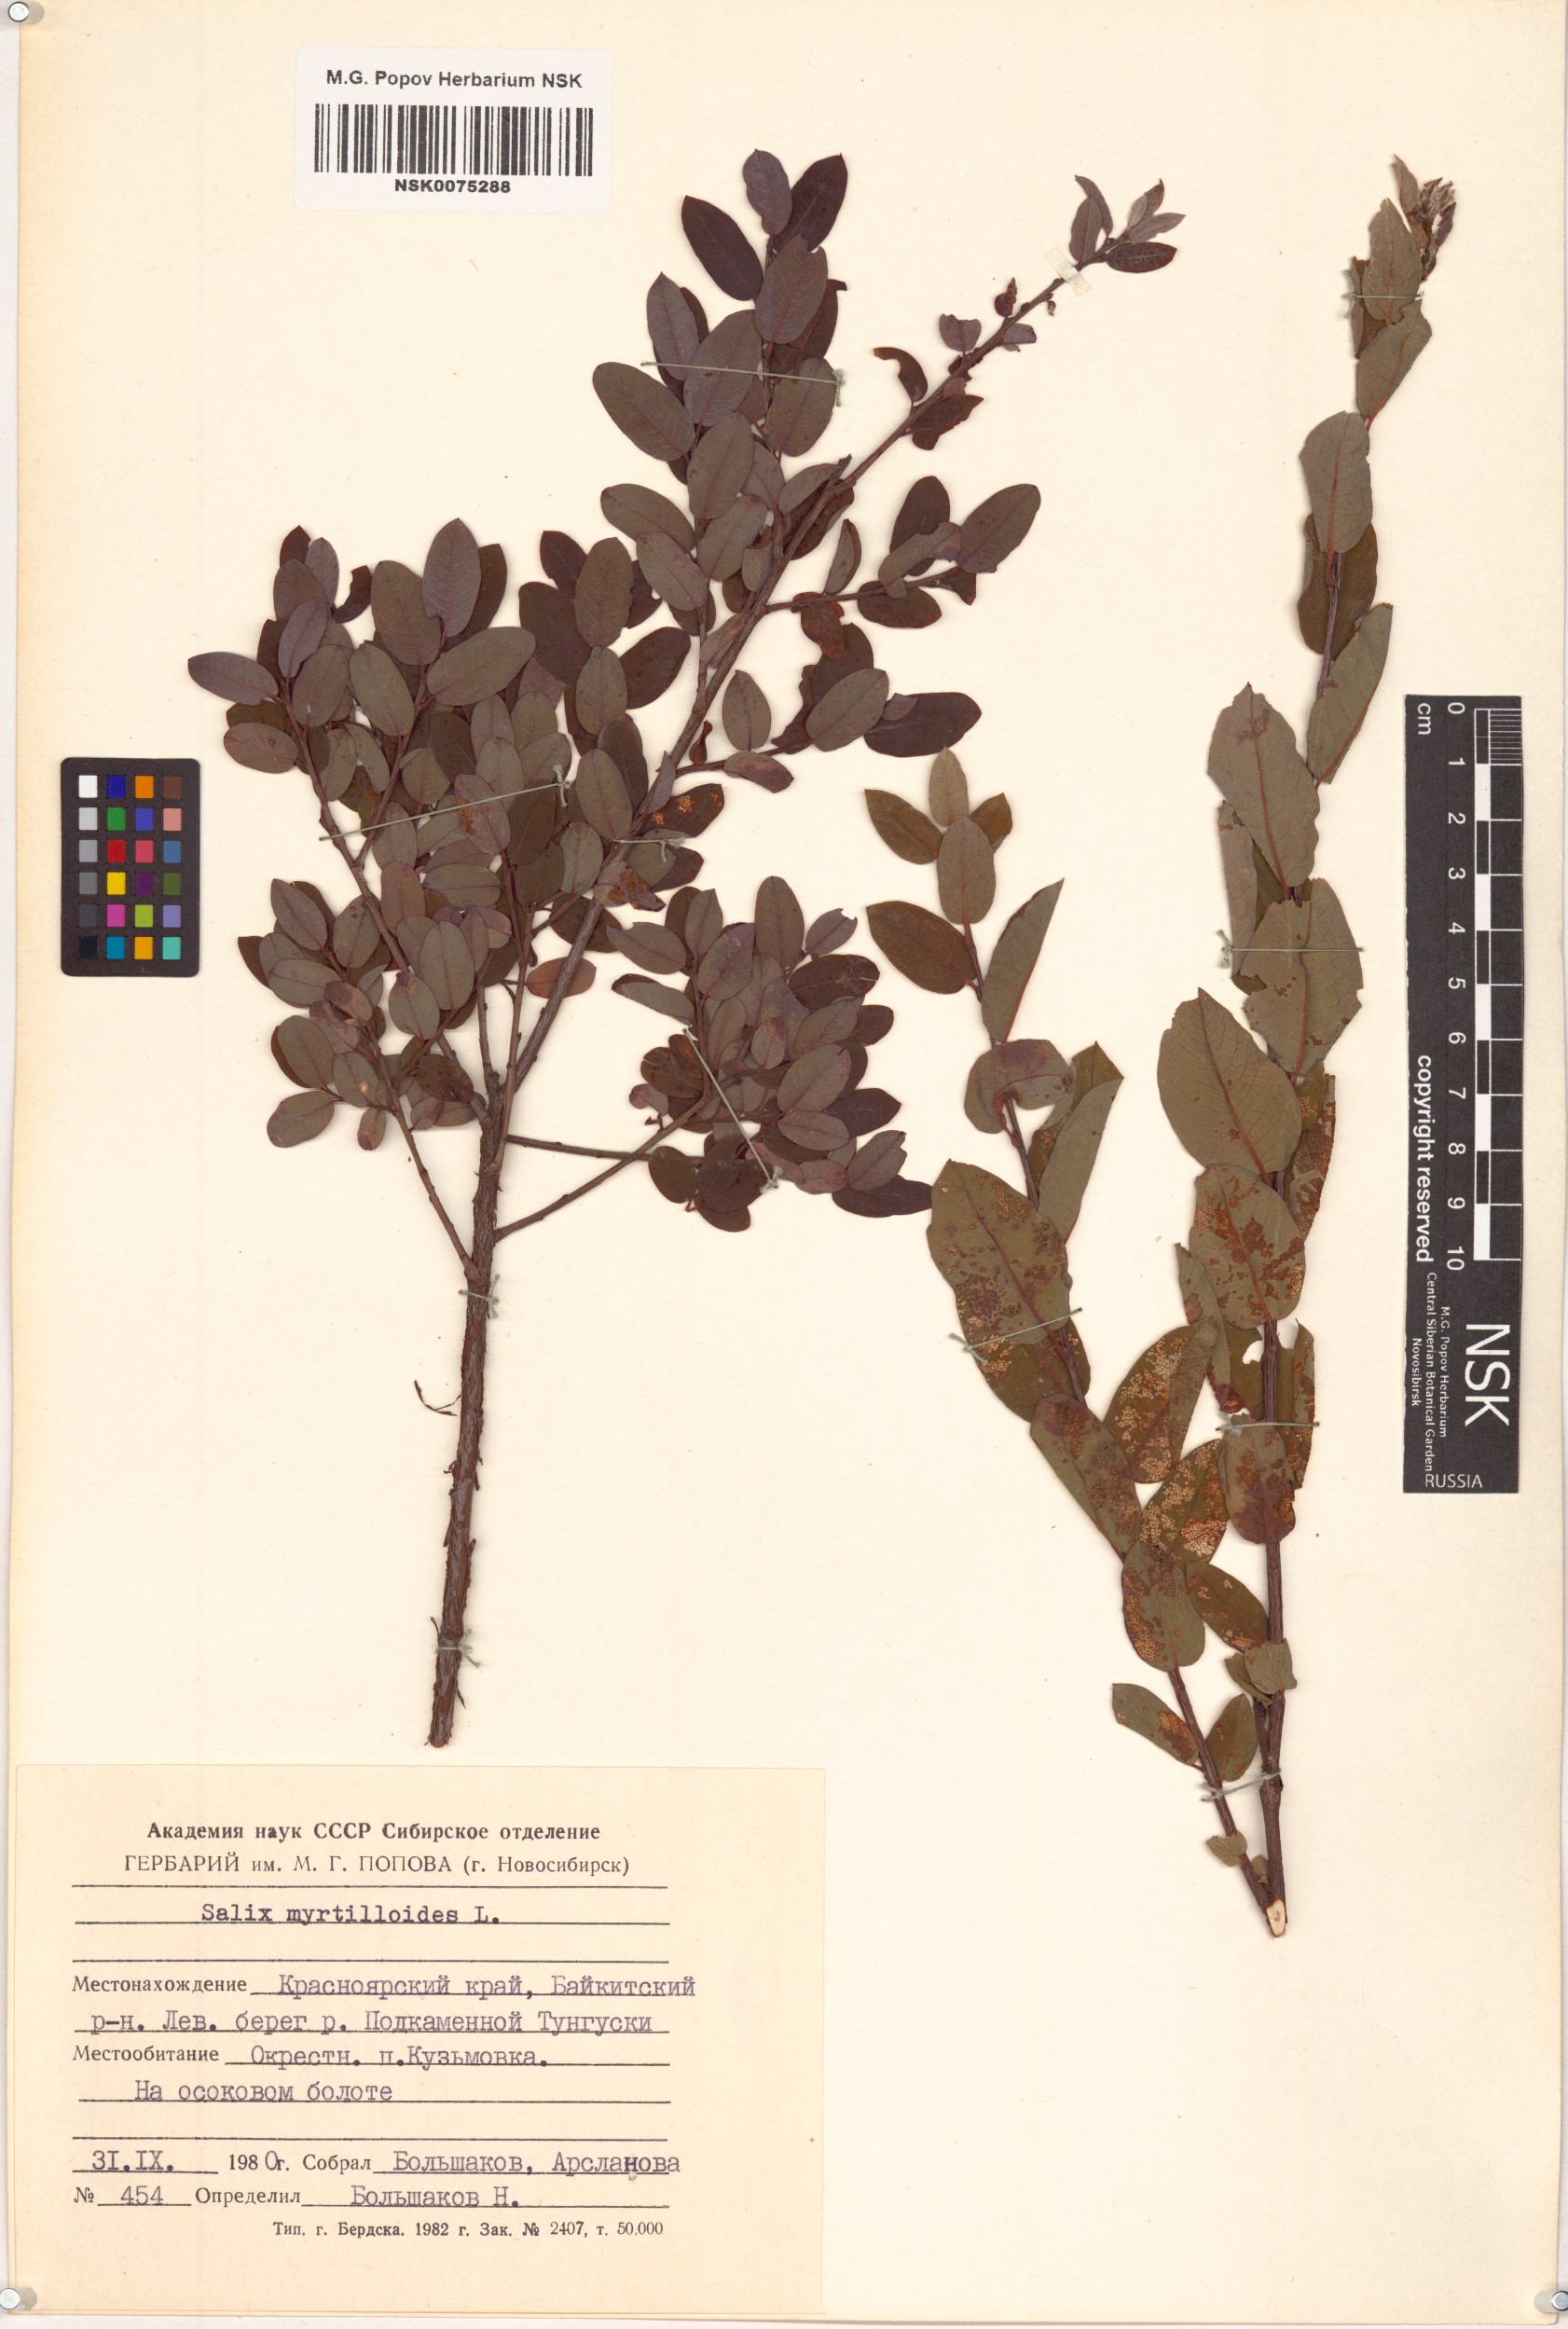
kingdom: Plantae
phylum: Tracheophyta
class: Magnoliopsida
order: Malpighiales
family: Salicaceae
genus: Salix
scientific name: Salix myrtilloides
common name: Myrtle-leaved willow
